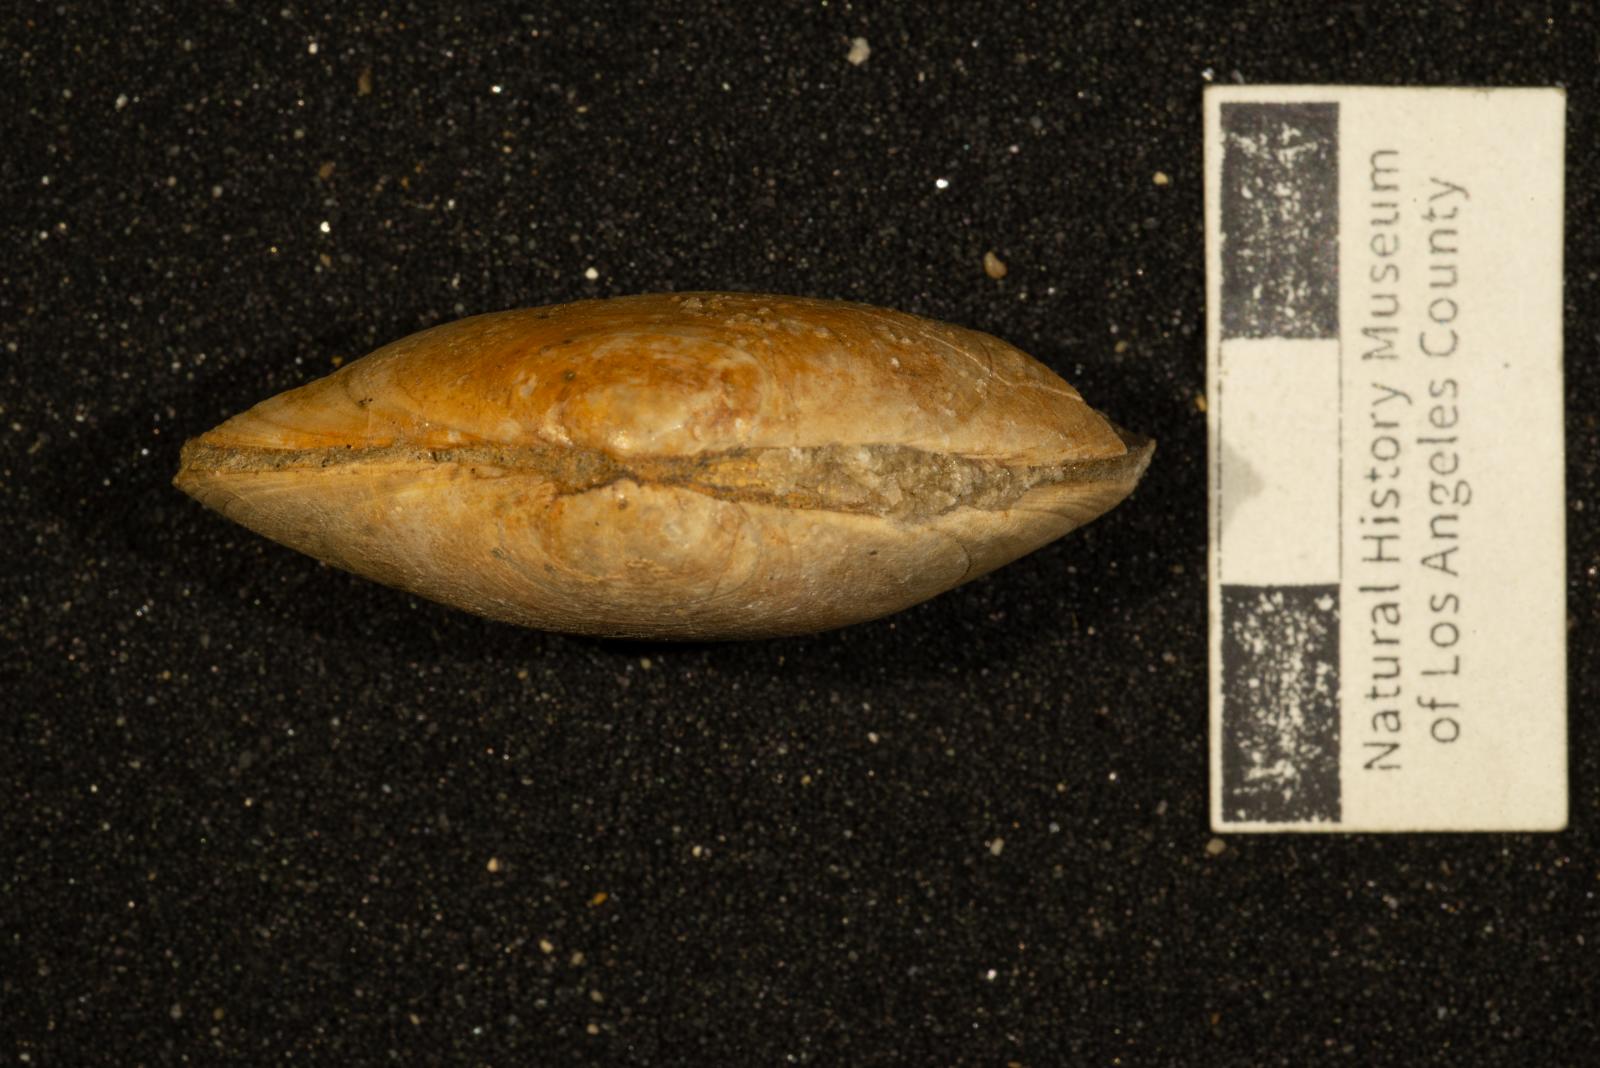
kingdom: Animalia
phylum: Mollusca
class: Bivalvia
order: Venerida
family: Veneridae
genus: Legumen
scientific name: Legumen ooides
